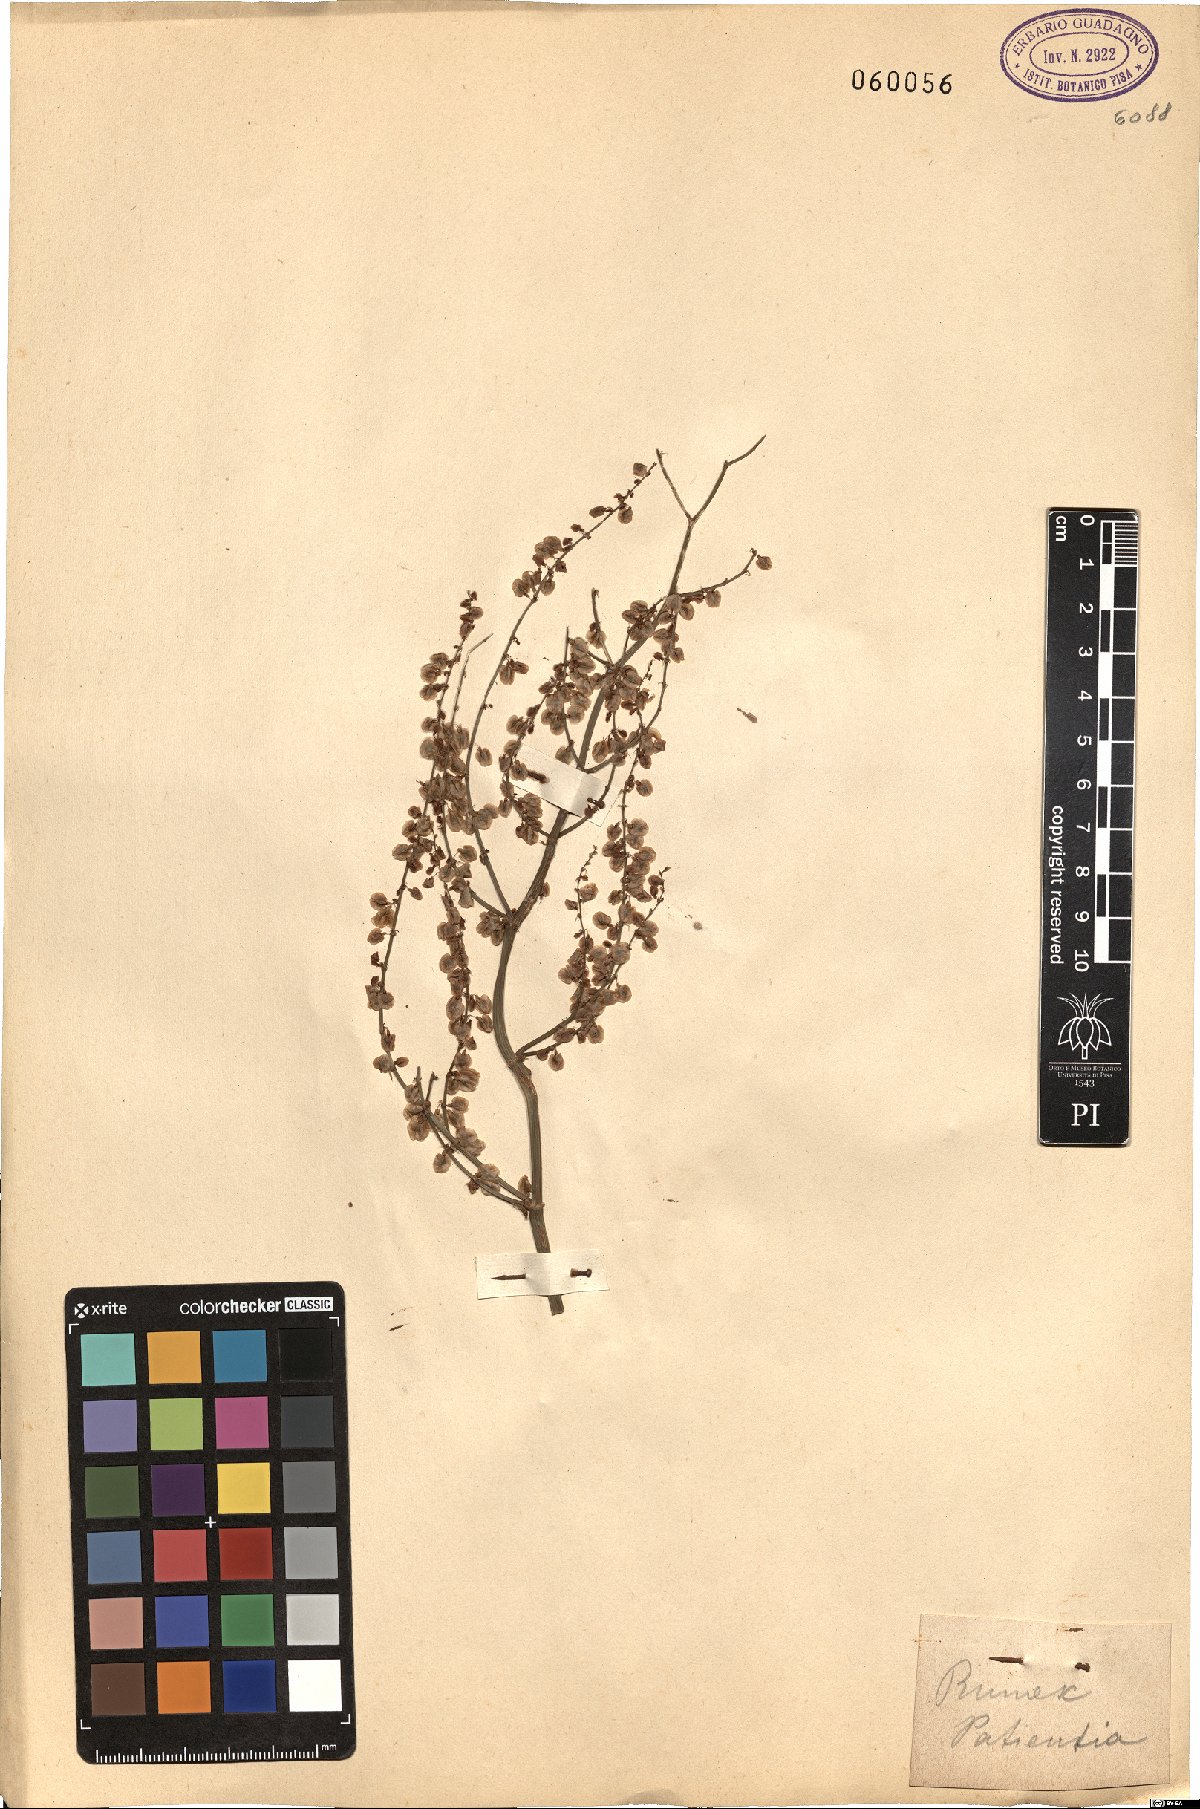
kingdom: Plantae
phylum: Tracheophyta
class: Magnoliopsida
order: Caryophyllales
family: Polygonaceae
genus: Rumex
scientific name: Rumex patientia
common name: Patience dock
